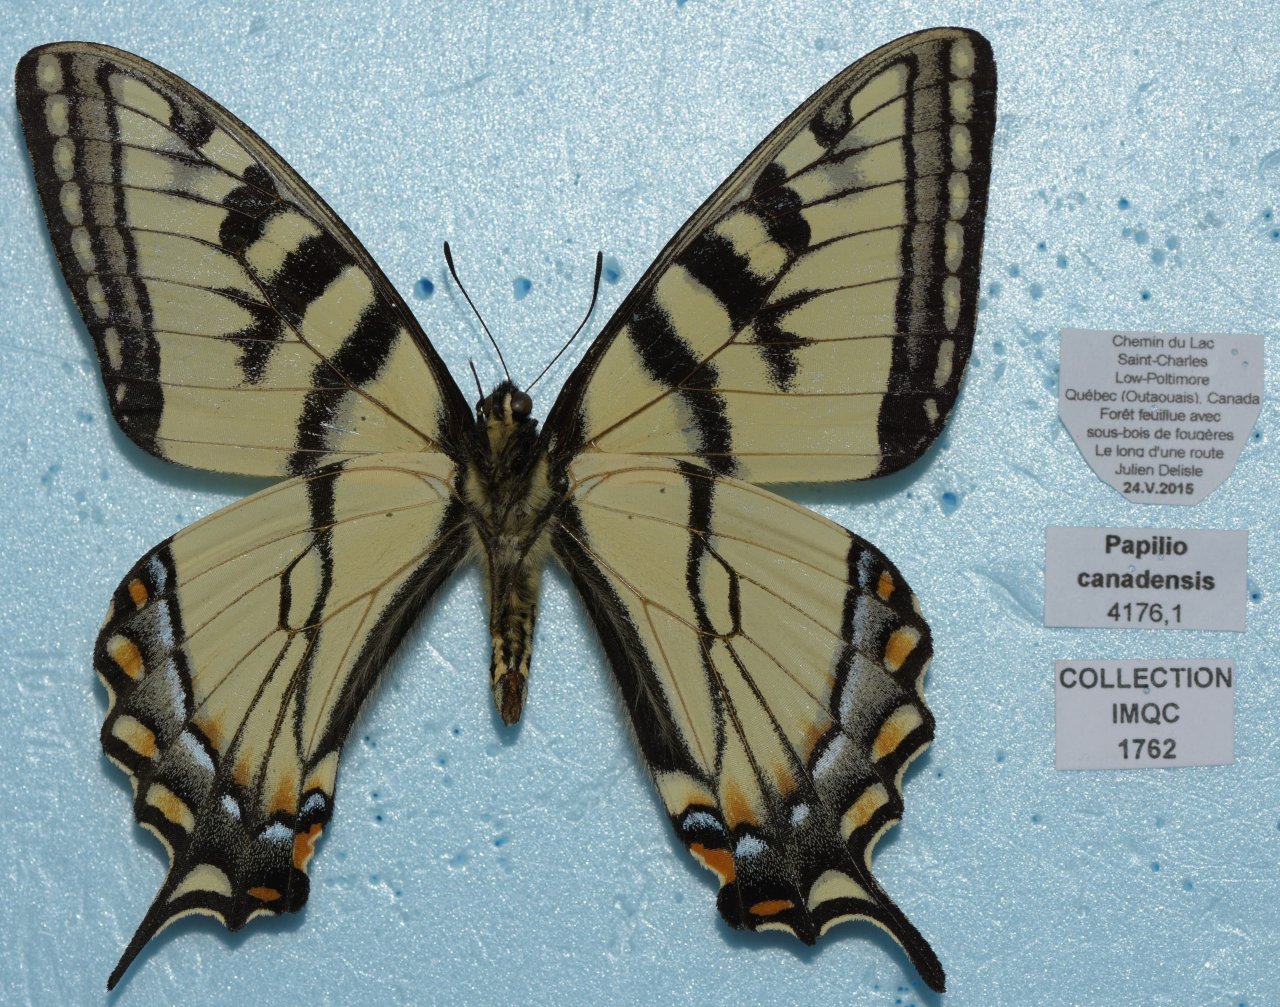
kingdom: Animalia
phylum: Arthropoda
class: Insecta
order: Lepidoptera
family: Papilionidae
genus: Pterourus
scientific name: Pterourus canadensis
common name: Canadian Tiger Swallowtail
